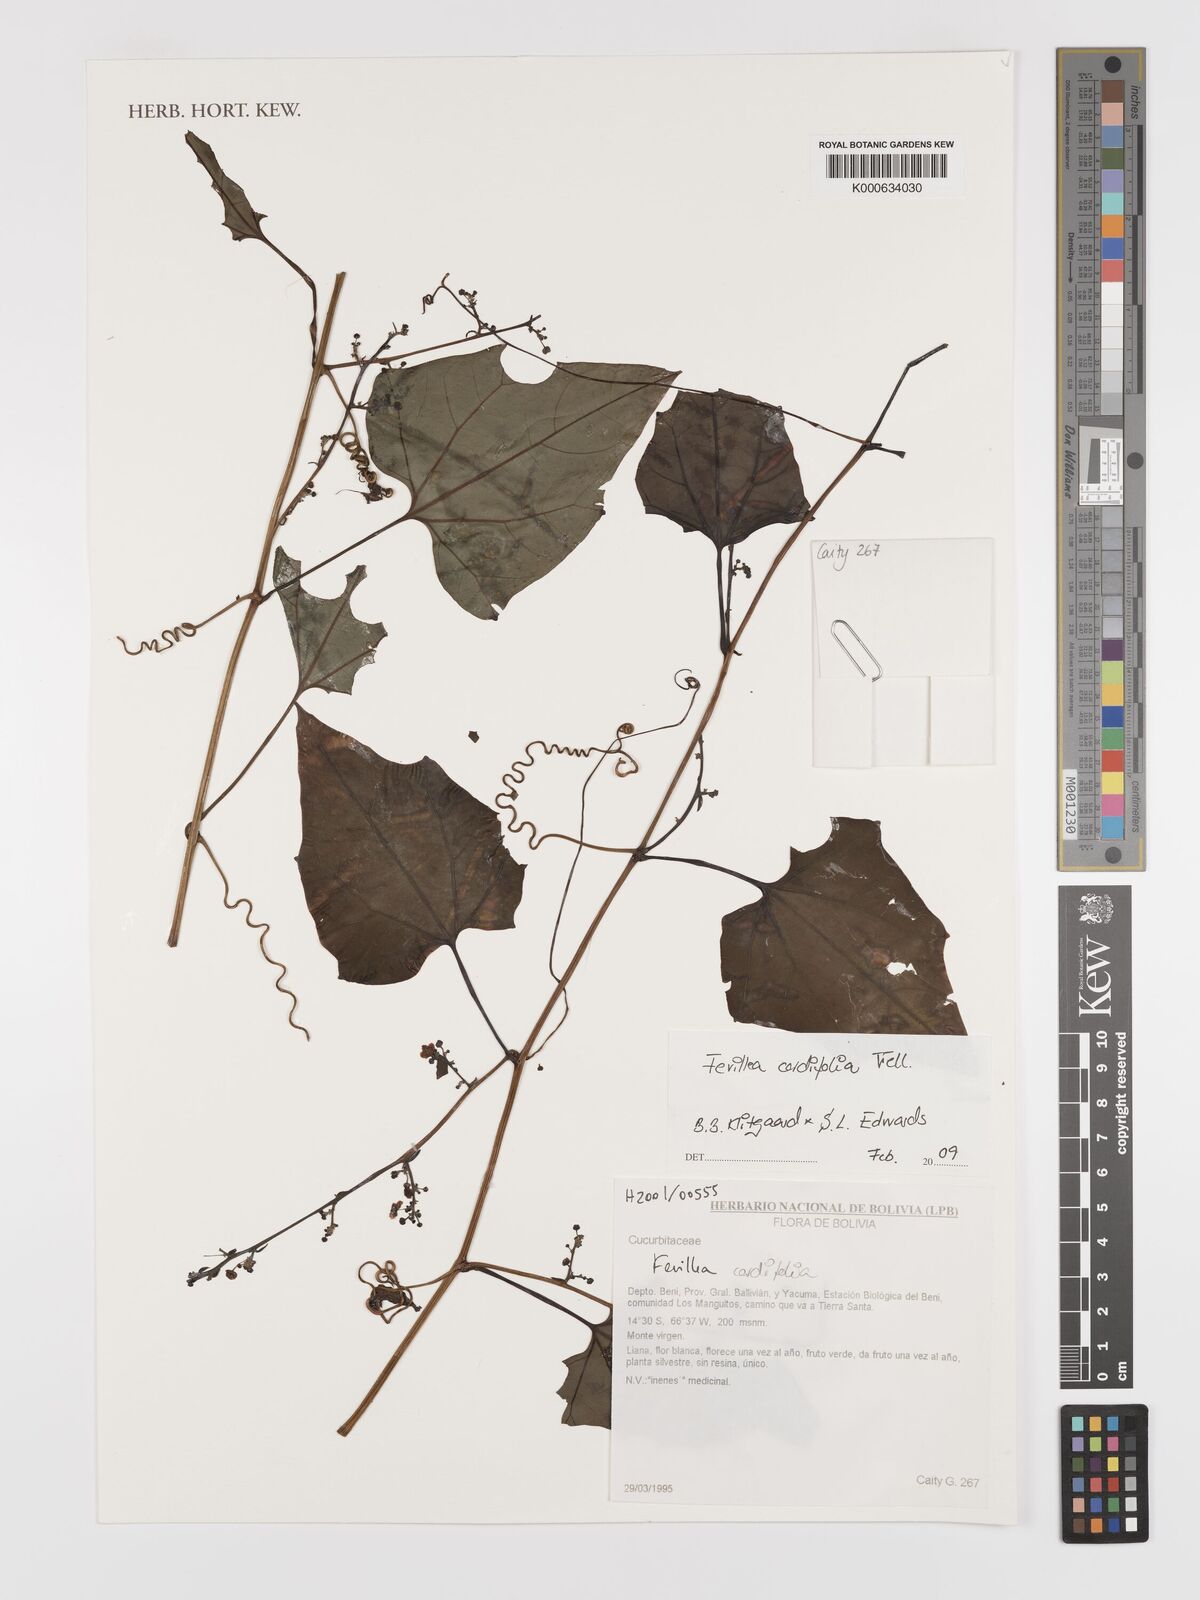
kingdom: Plantae
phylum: Tracheophyta
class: Magnoliopsida
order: Cucurbitales
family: Cucurbitaceae
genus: Fevillea
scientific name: Fevillea trilobata
